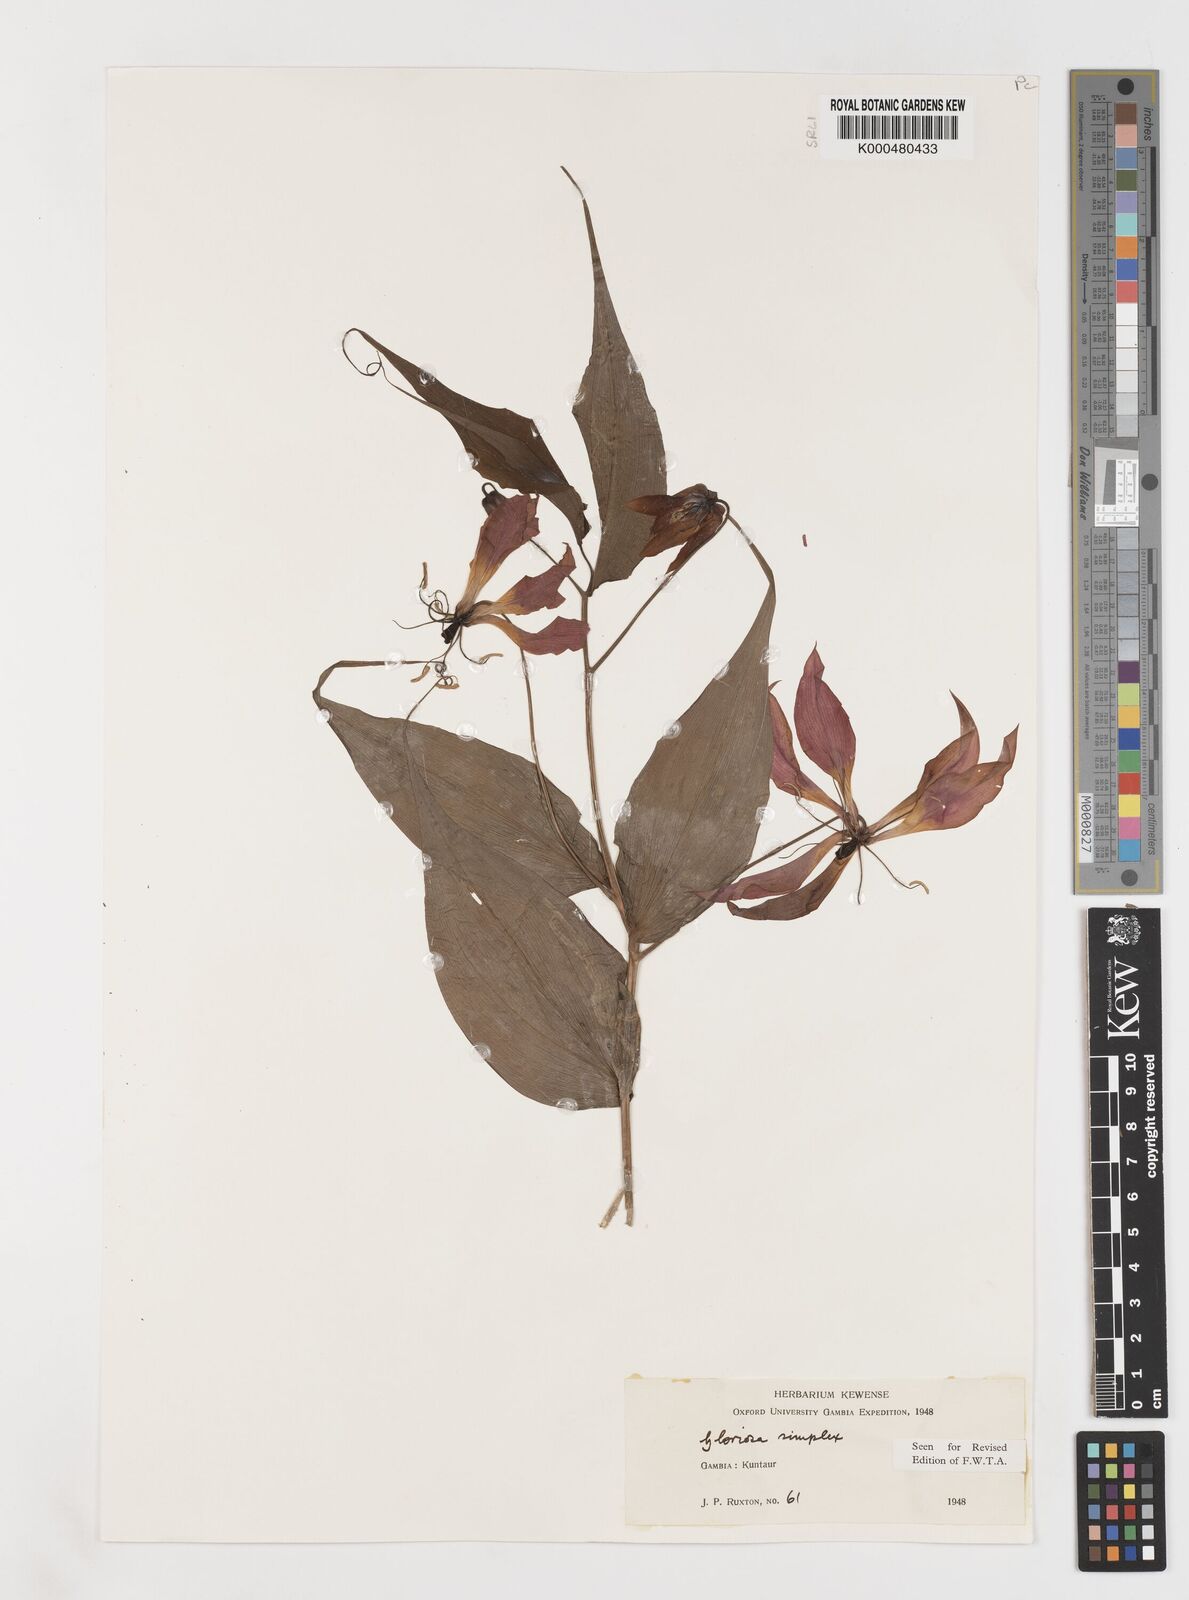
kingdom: Plantae
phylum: Tracheophyta
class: Liliopsida
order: Liliales
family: Colchicaceae
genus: Gloriosa
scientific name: Gloriosa simplex
